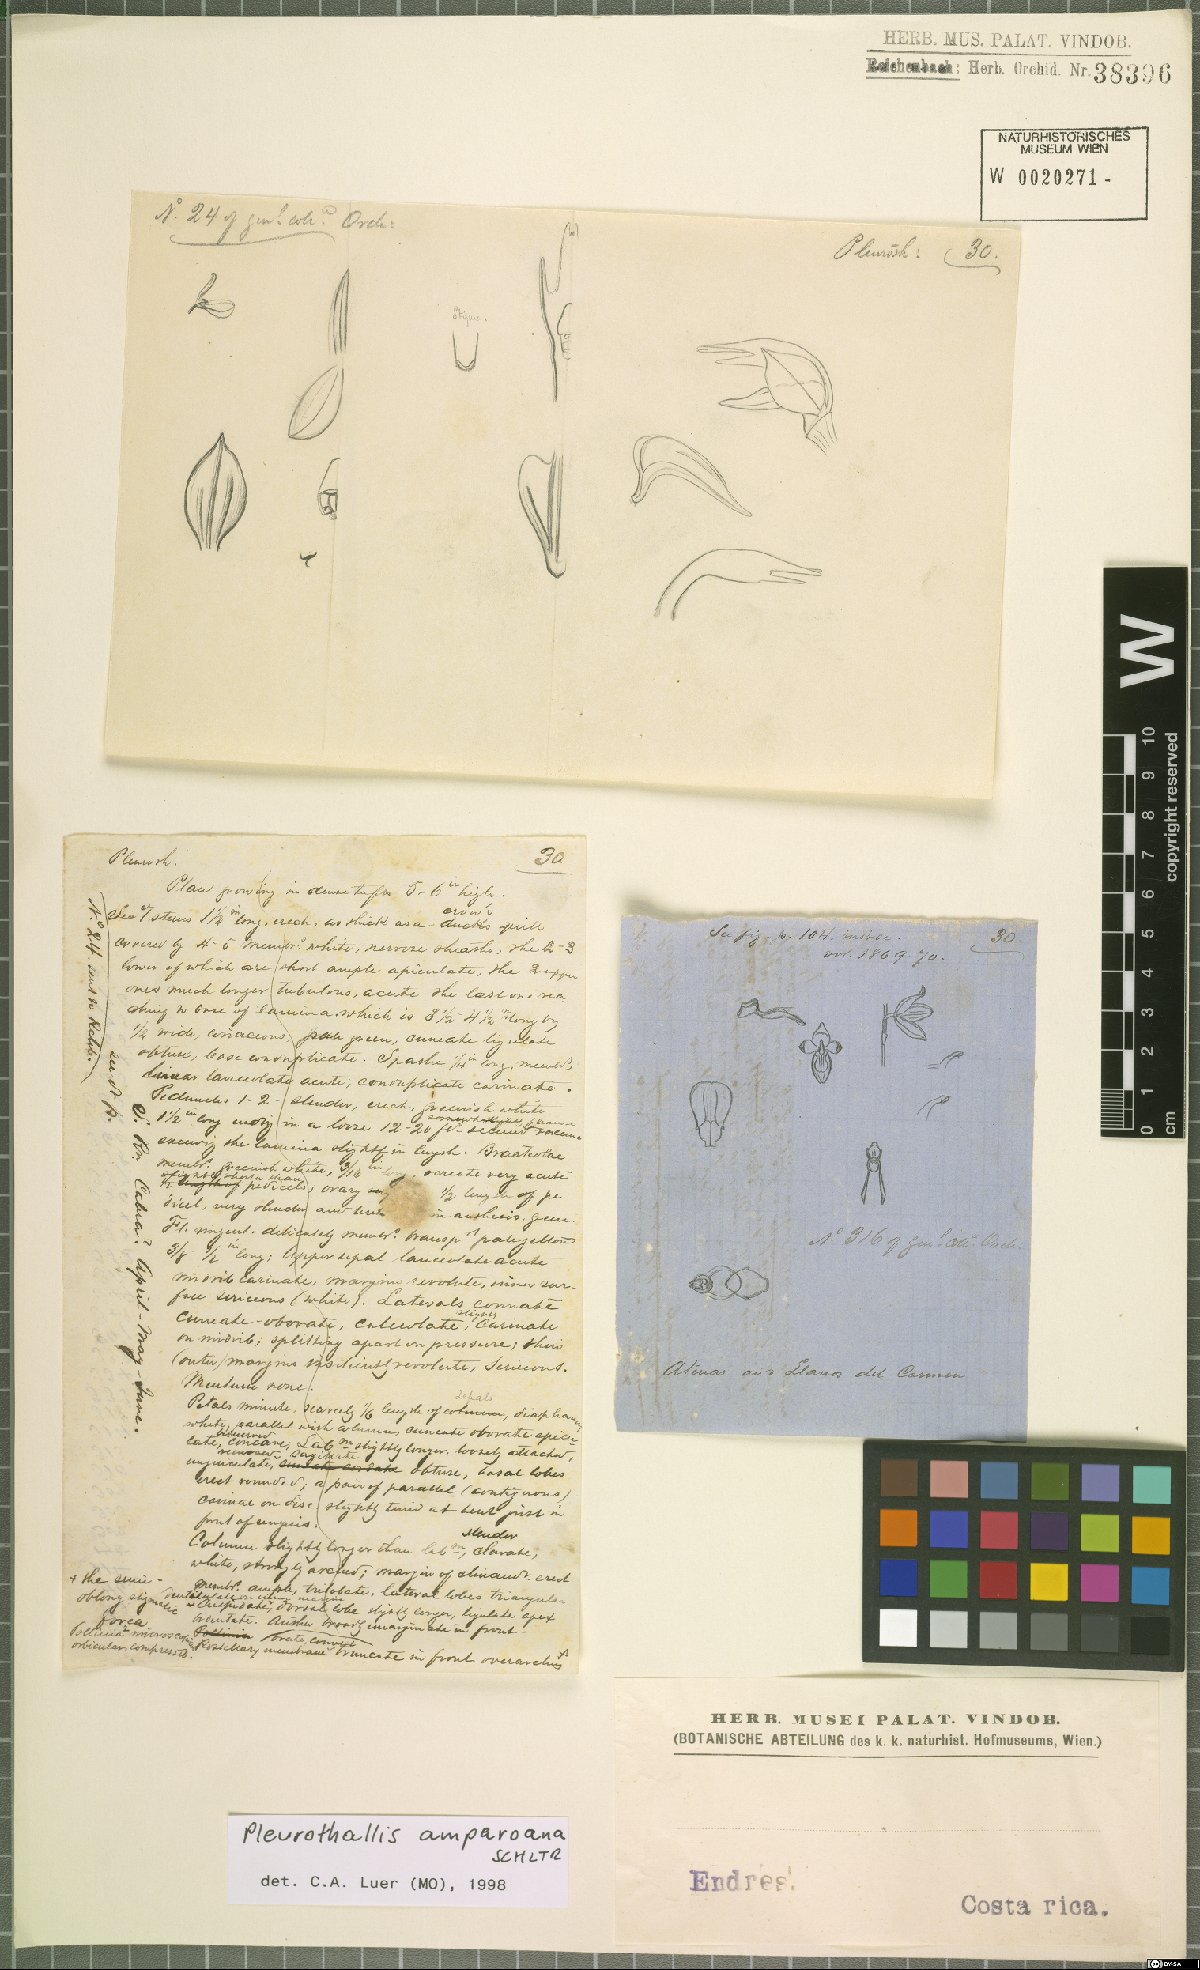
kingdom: Plantae
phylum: Tracheophyta
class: Liliopsida
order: Asparagales
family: Orchidaceae
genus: Stelis
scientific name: Stelis pilosa
